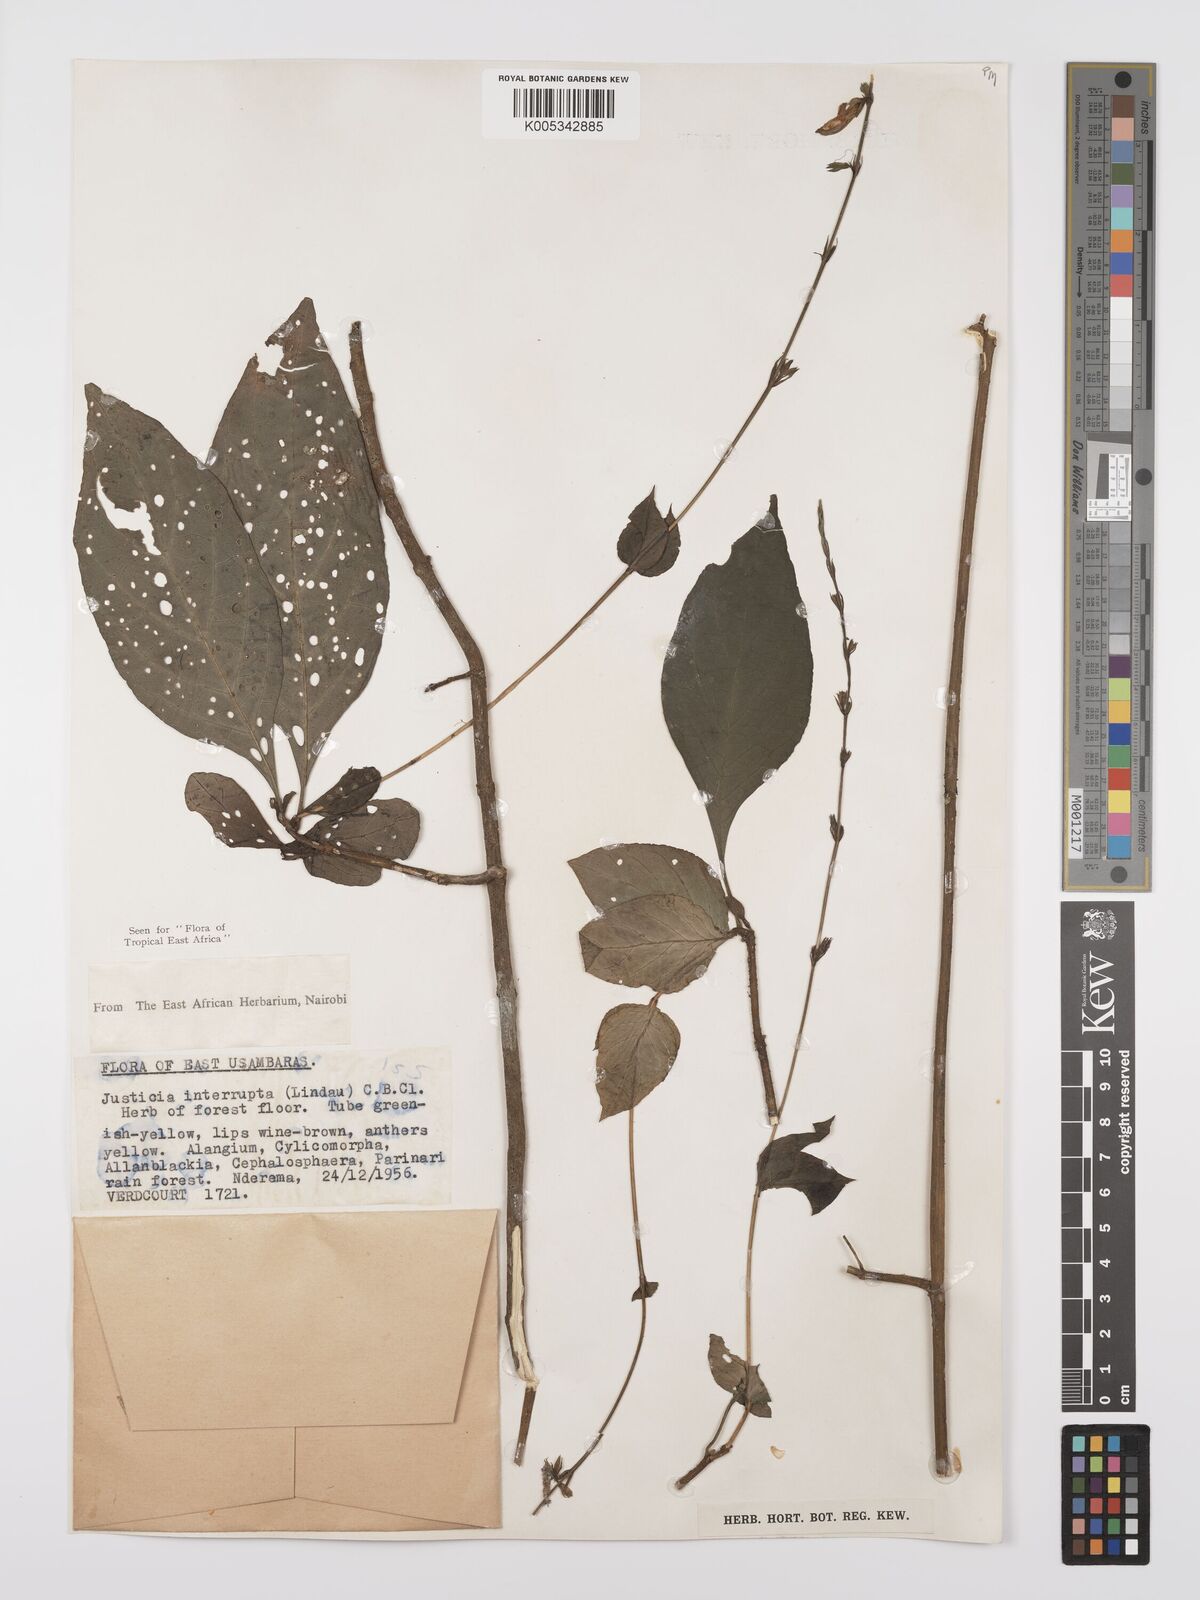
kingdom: Plantae
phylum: Tracheophyta
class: Magnoliopsida
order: Lamiales
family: Acanthaceae
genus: Justicia
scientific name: Justicia plectranthoides
